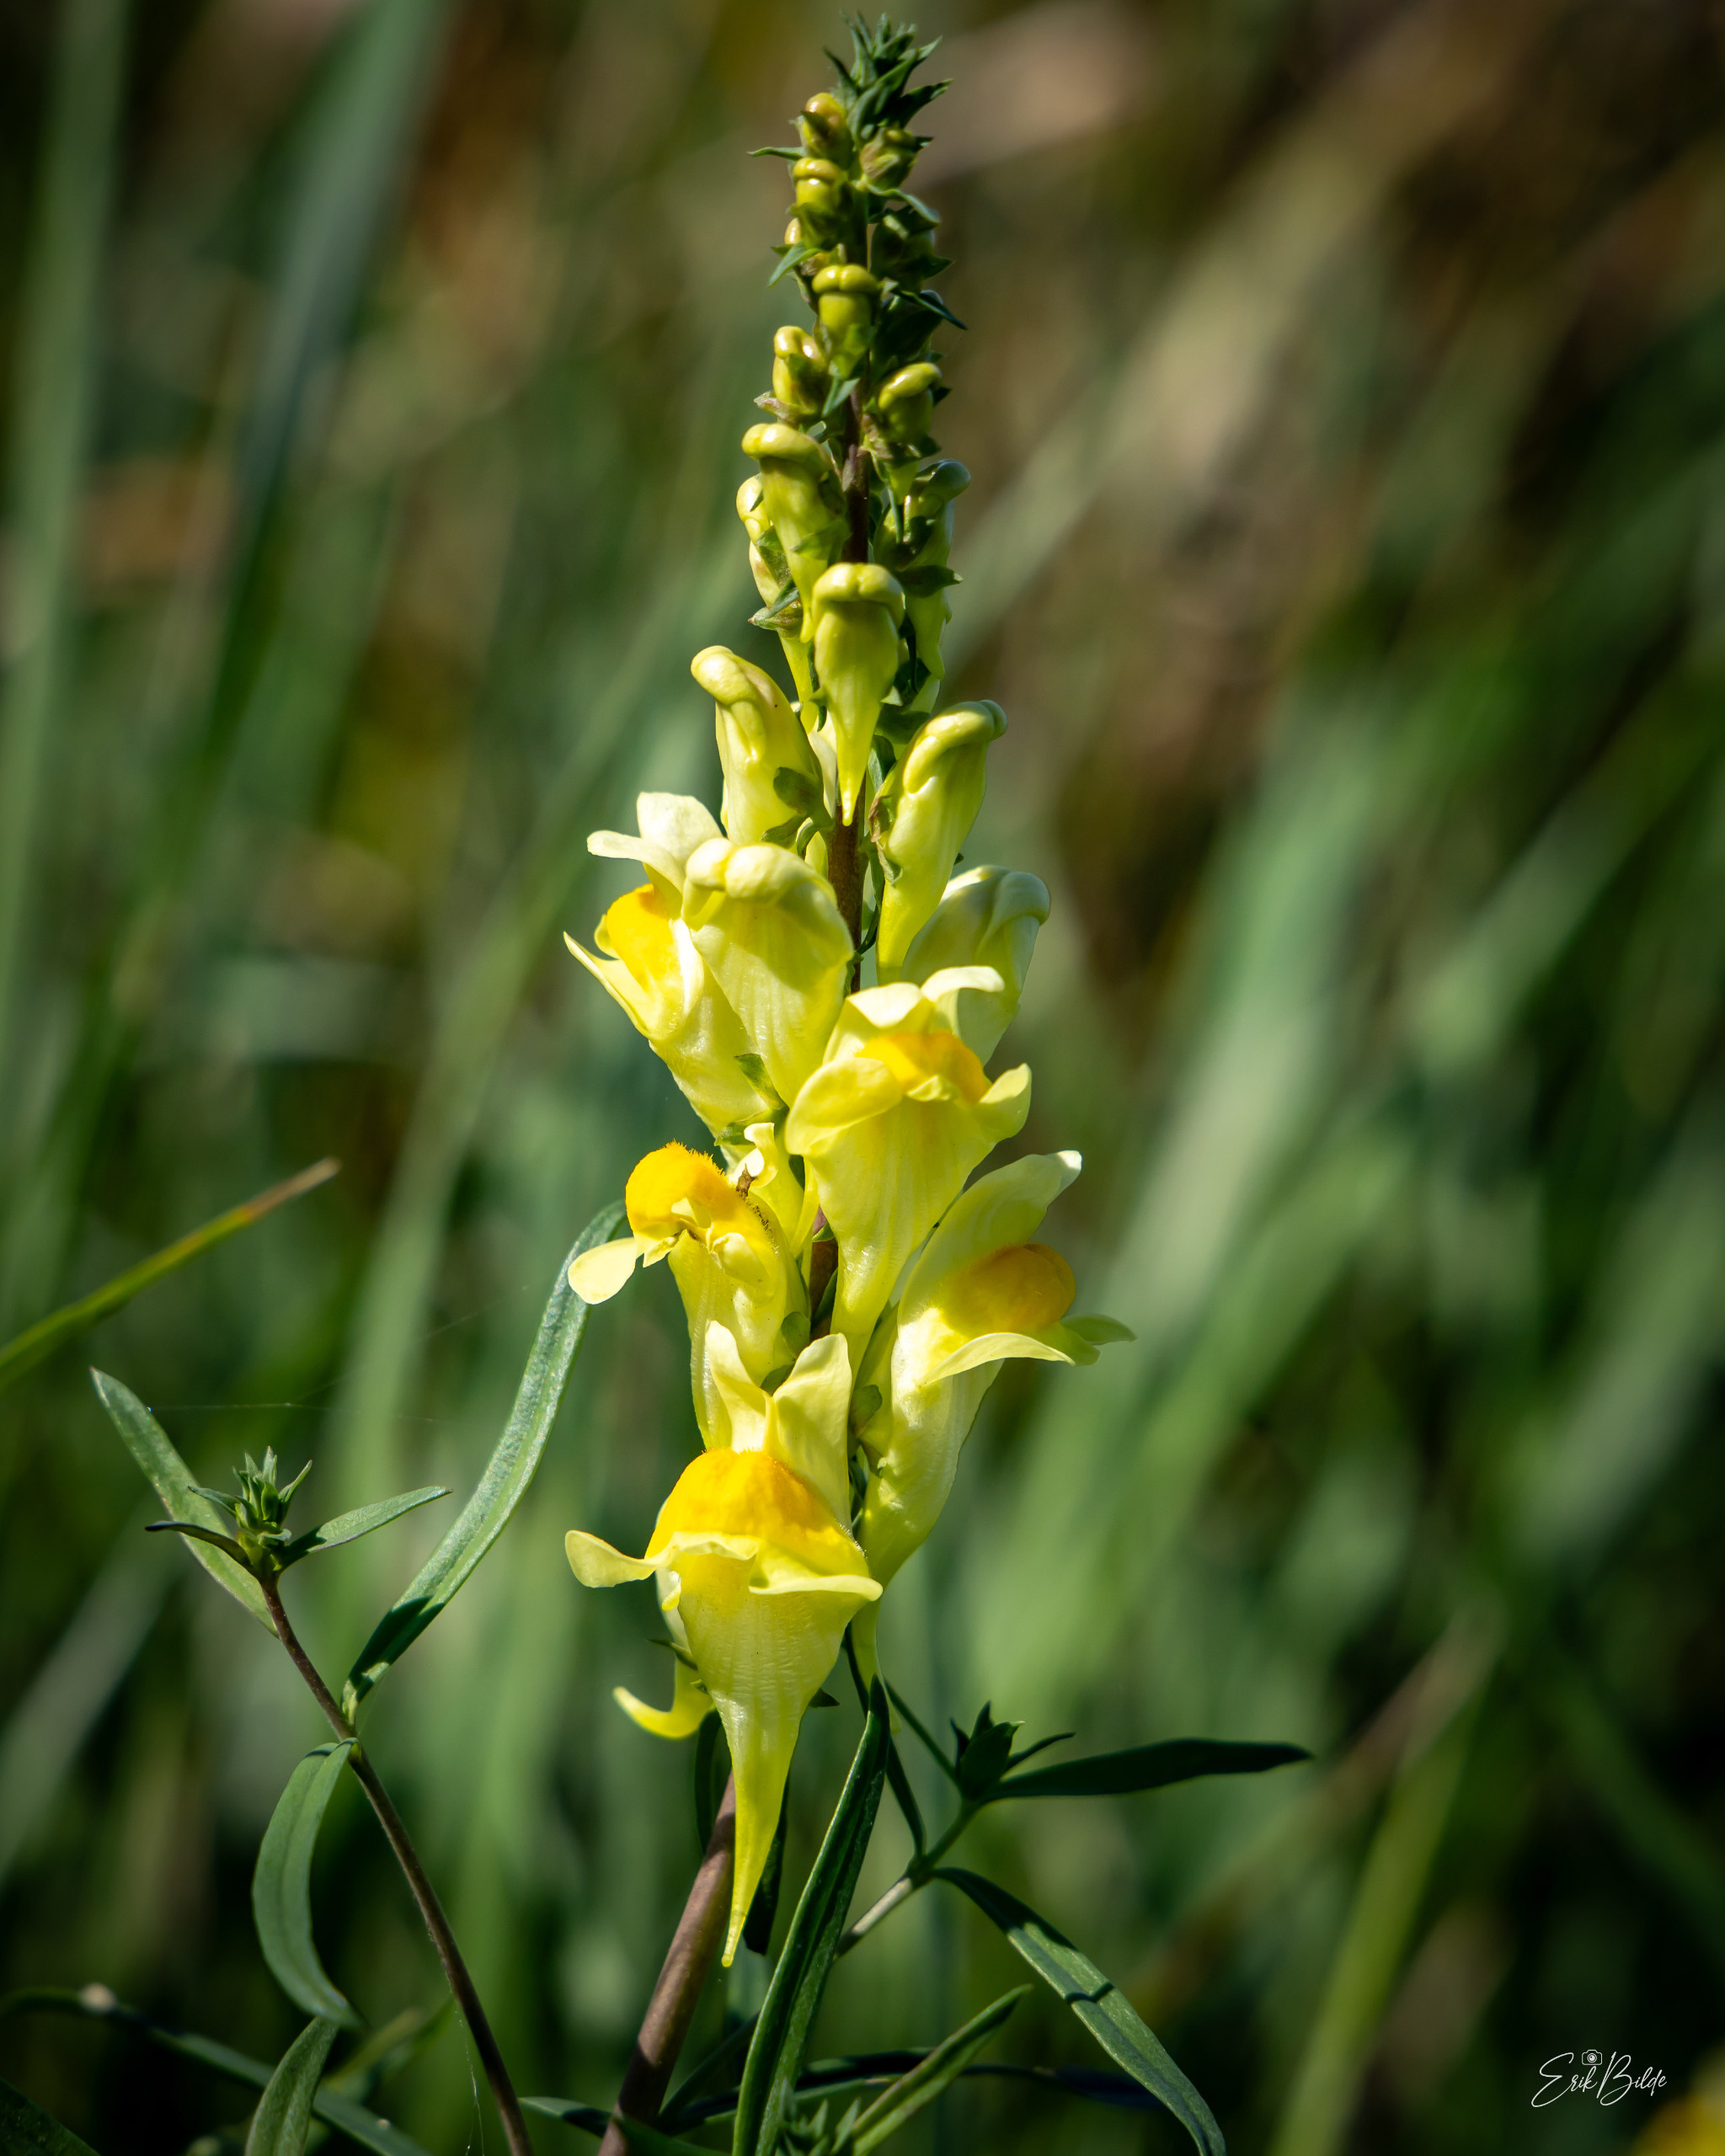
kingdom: Plantae
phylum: Tracheophyta
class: Magnoliopsida
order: Lamiales
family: Plantaginaceae
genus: Linaria
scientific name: Linaria vulgaris
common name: Almindelig torskemund
